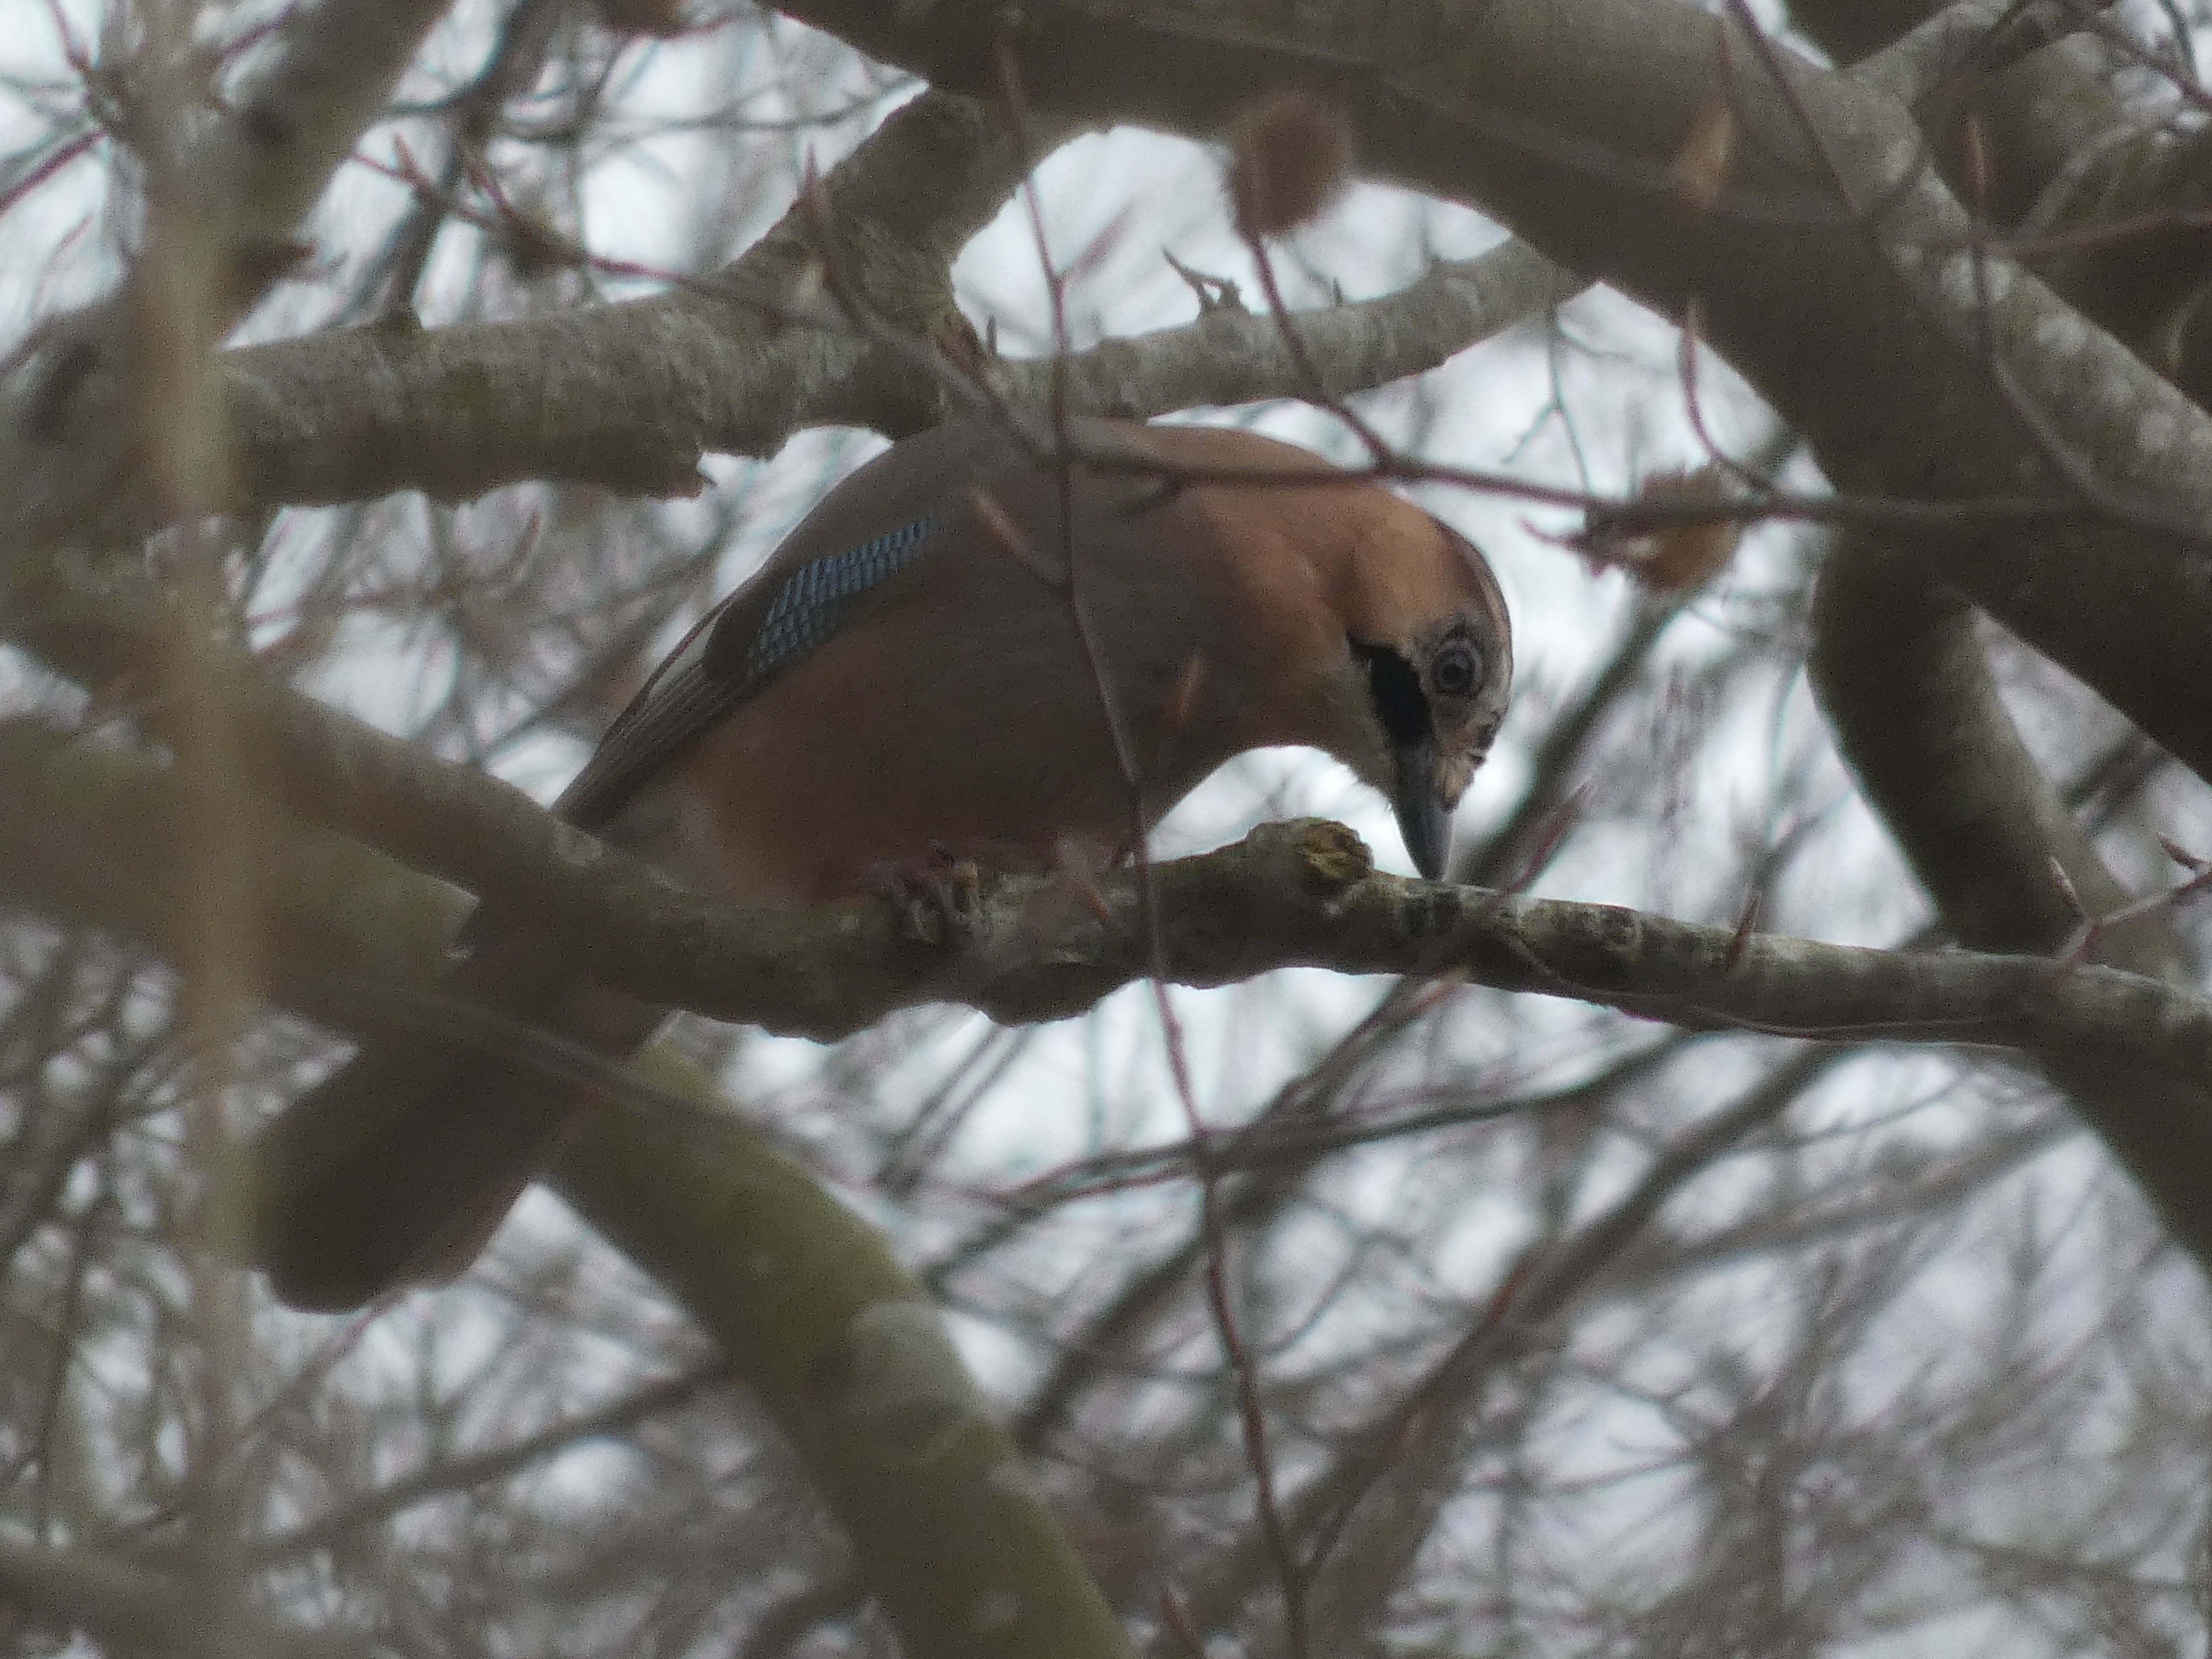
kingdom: Animalia
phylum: Chordata
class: Aves
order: Passeriformes
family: Corvidae
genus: Garrulus
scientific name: Garrulus glandarius
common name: Skovskade
